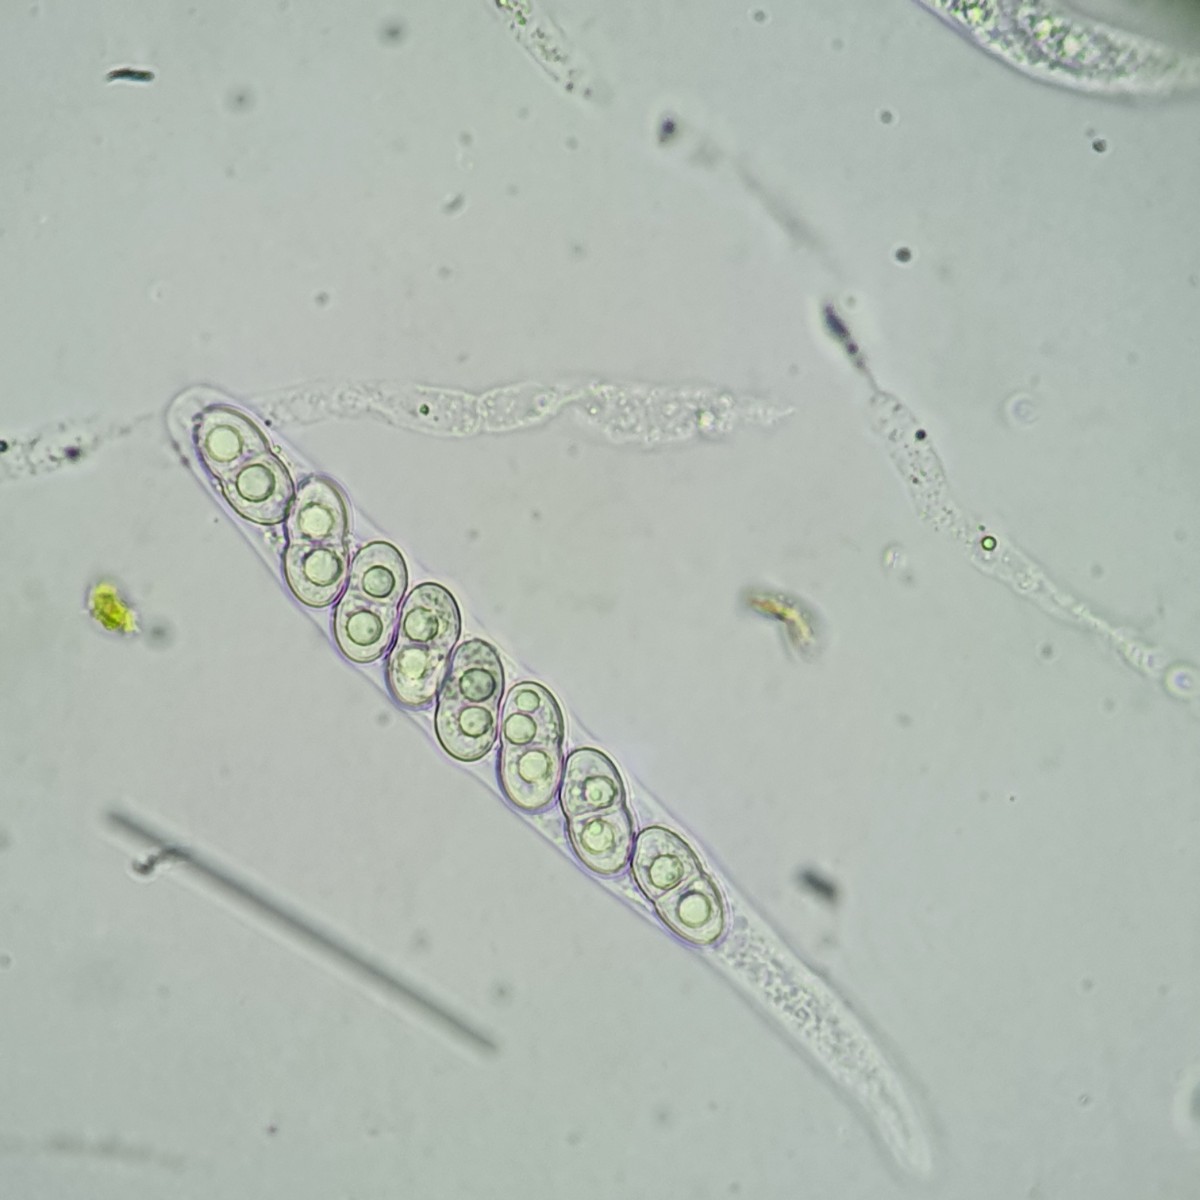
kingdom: Fungi
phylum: Ascomycota
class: Sordariomycetes
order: Diaporthales
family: Lamproconiaceae
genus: Hercospora
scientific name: Hercospora tiliae
